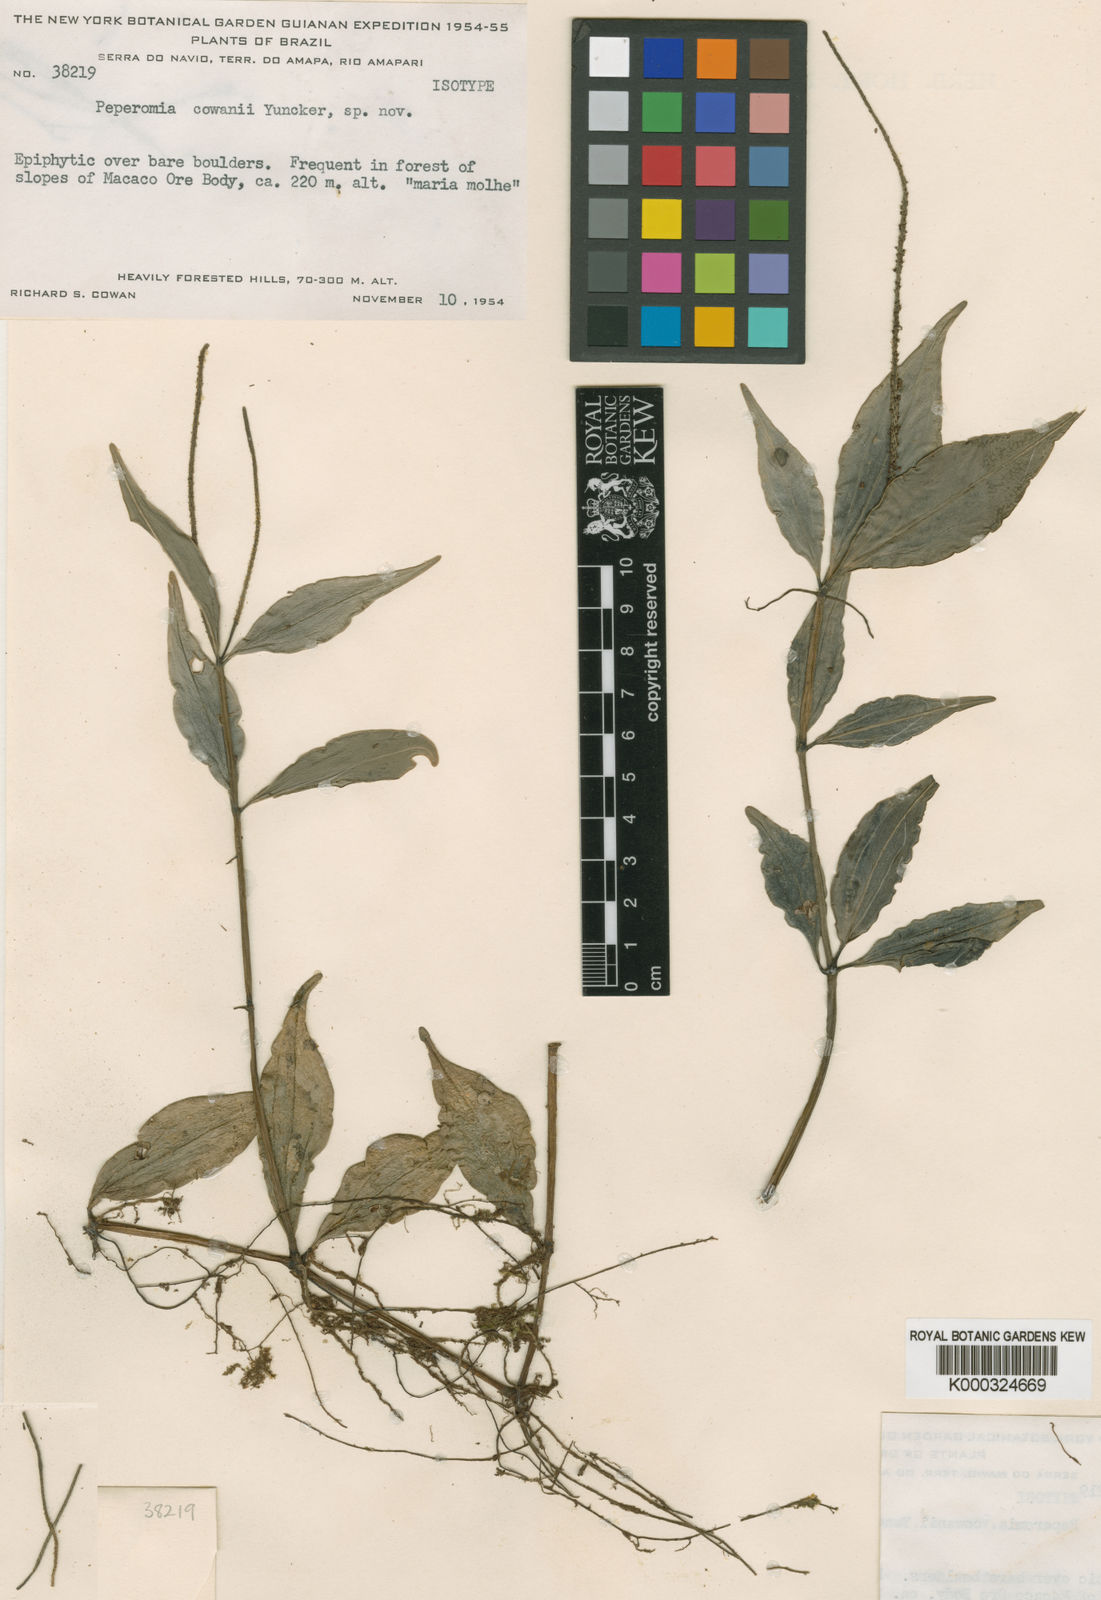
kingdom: Plantae
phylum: Tracheophyta
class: Magnoliopsida
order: Piperales
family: Piperaceae
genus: Peperomia
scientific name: Peperomia cowanii
